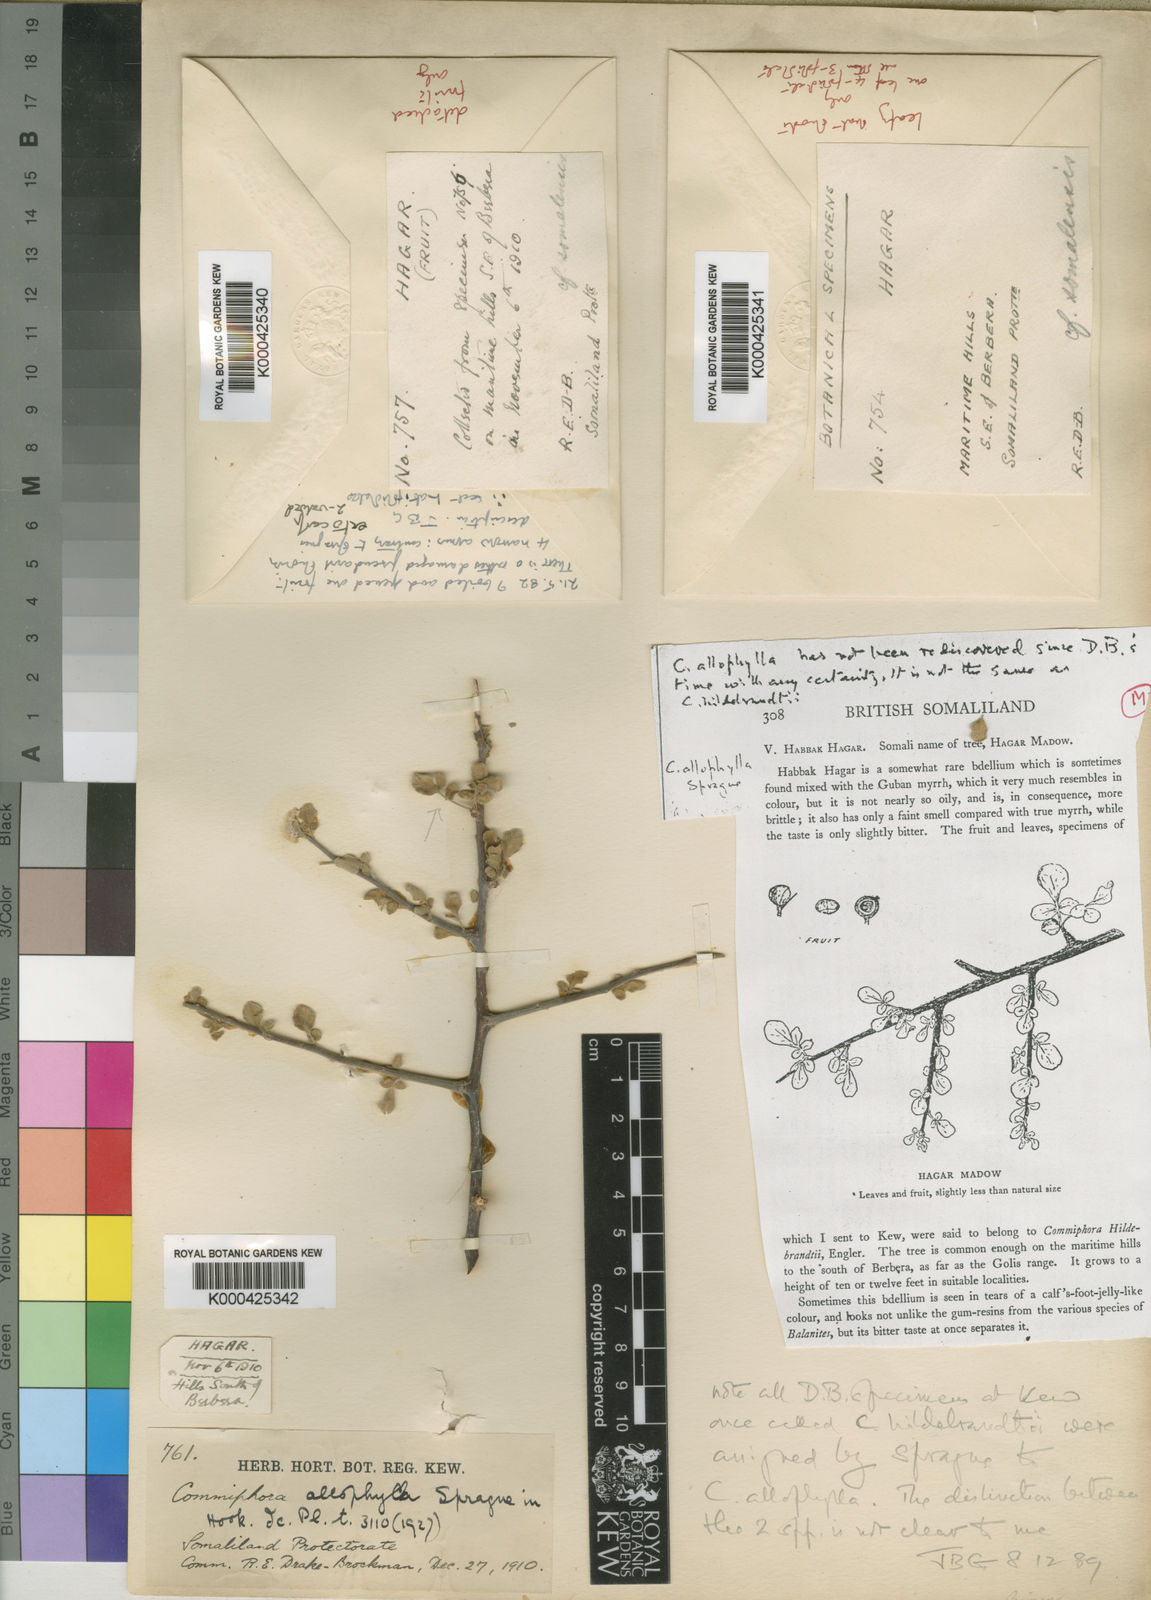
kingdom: Plantae
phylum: Tracheophyta
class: Magnoliopsida
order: Sapindales
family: Burseraceae
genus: Commiphora
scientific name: Commiphora kataf
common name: Bisabol myrrh
